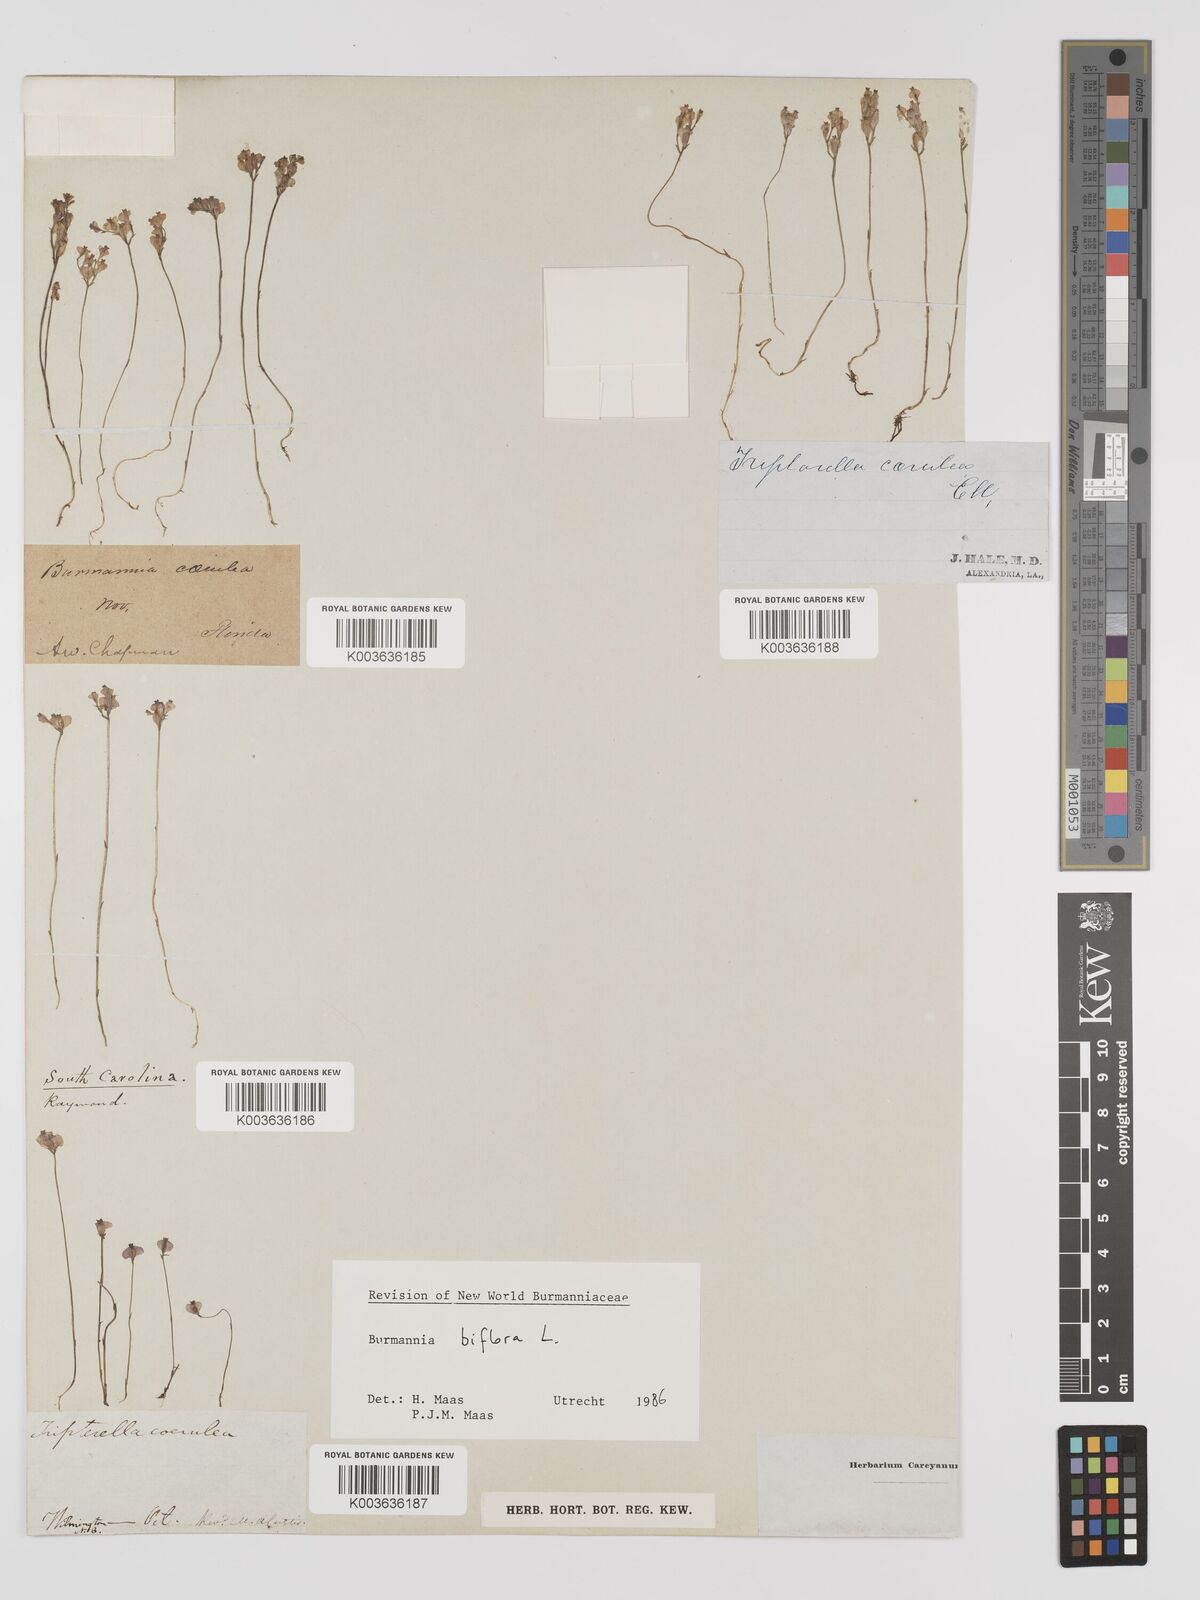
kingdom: Plantae
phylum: Tracheophyta
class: Liliopsida
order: Dioscoreales
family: Burmanniaceae
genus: Burmannia
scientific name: Burmannia biflora
